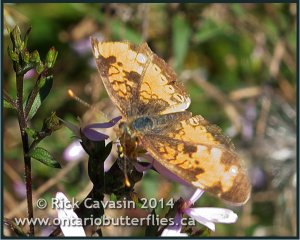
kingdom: Animalia
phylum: Arthropoda
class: Insecta
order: Lepidoptera
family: Nymphalidae
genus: Phyciodes
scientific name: Phyciodes tharos
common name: Northern Crescent
